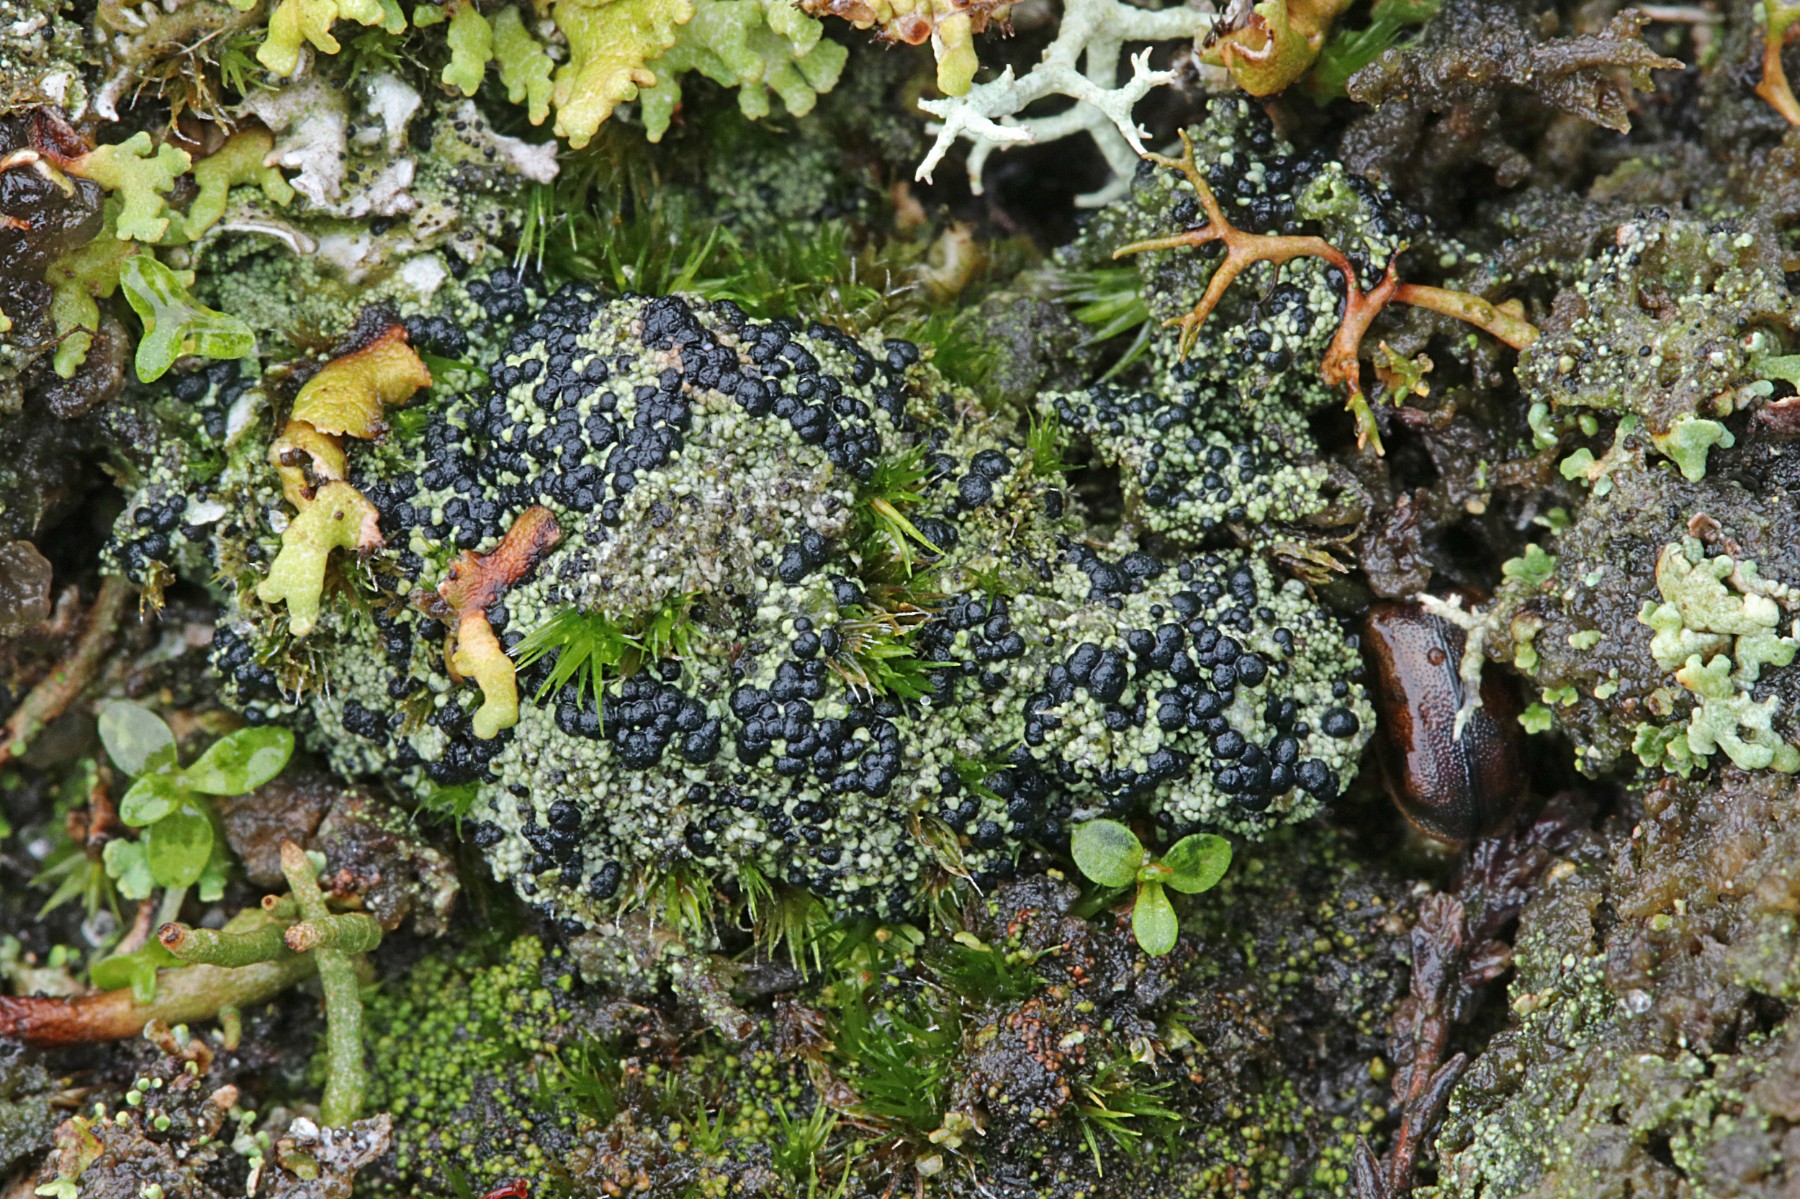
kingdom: Fungi
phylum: Ascomycota
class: Lecanoromycetes
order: Lecanorales
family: Byssolomataceae
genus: Micarea
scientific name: Micarea lignaria
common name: tørve-knaplav
